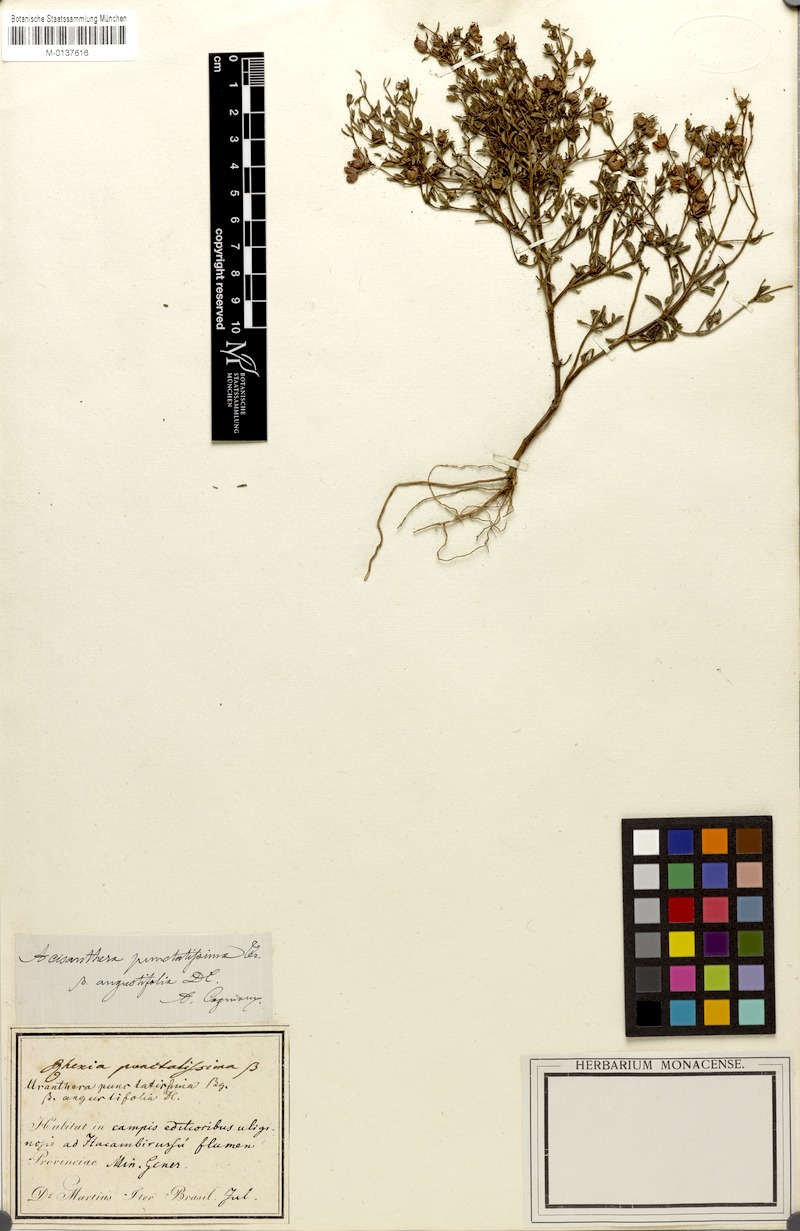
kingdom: Plantae
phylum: Tracheophyta
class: Magnoliopsida
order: Myrtales
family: Melastomataceae
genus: Acisanthera
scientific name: Acisanthera quadrata
